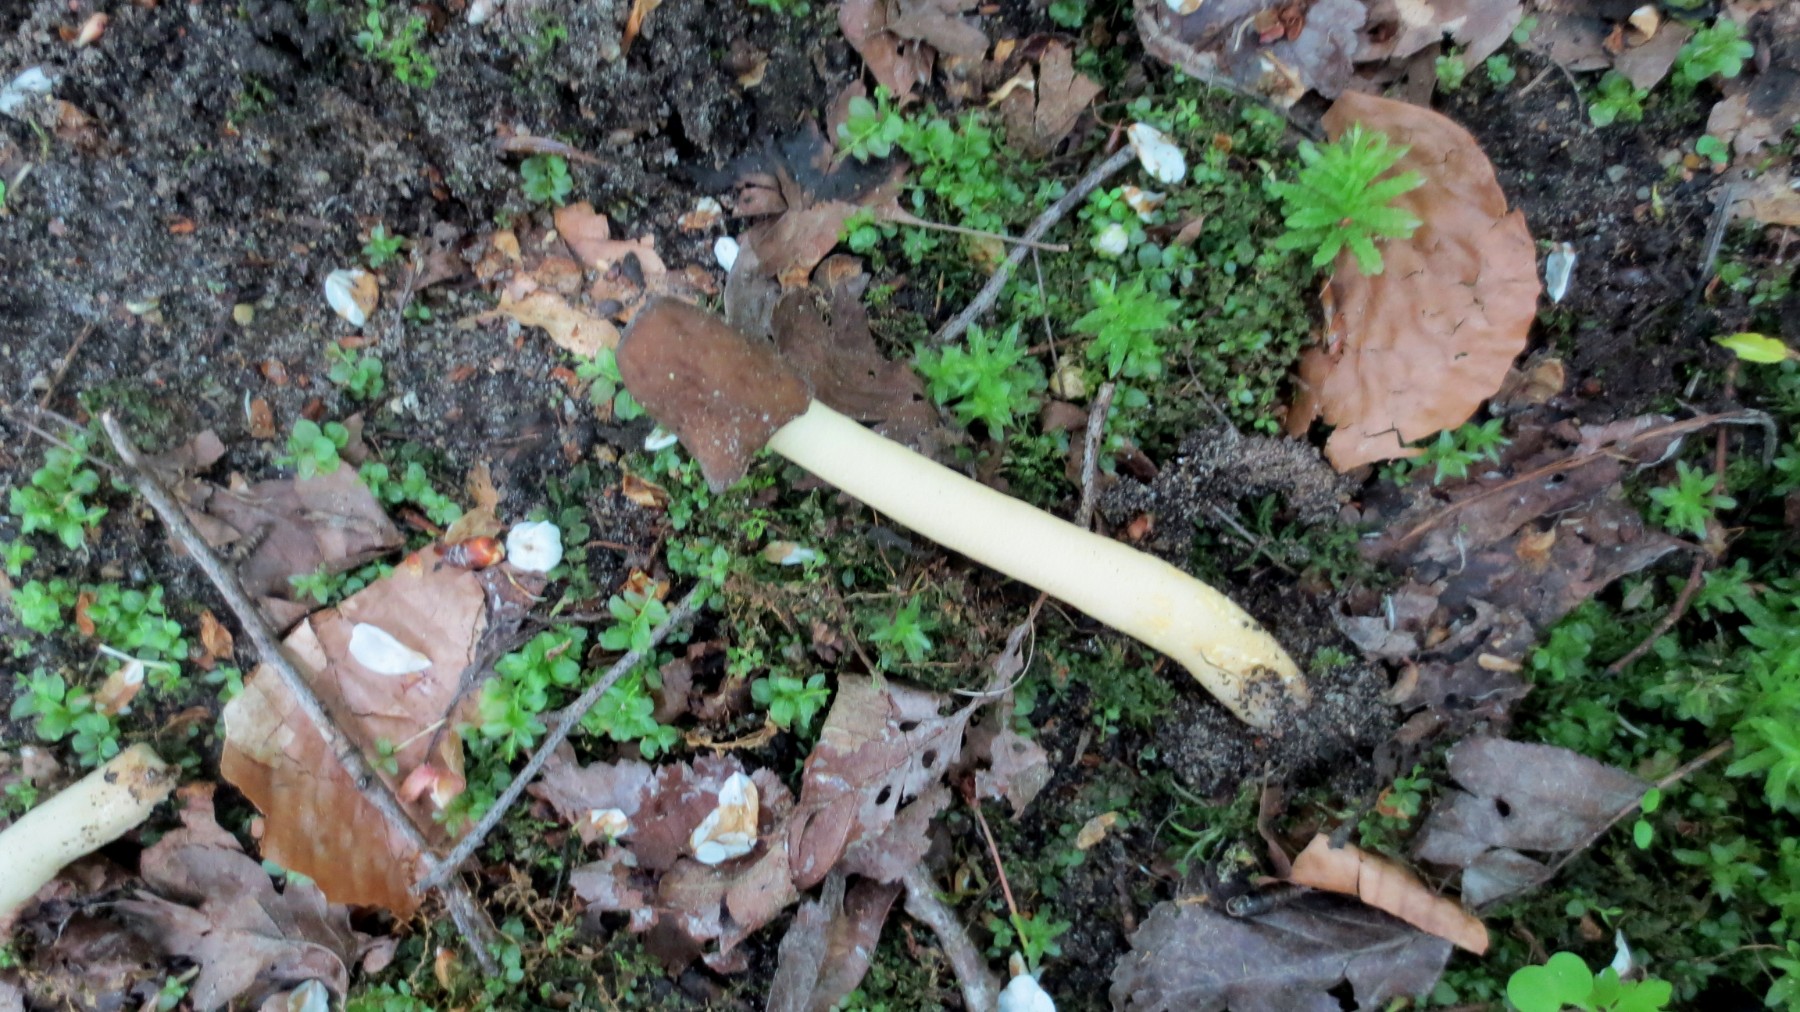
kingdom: Fungi
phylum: Ascomycota
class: Pezizomycetes
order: Pezizales
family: Morchellaceae
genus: Verpa
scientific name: Verpa conica
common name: glat klokkemorkel
